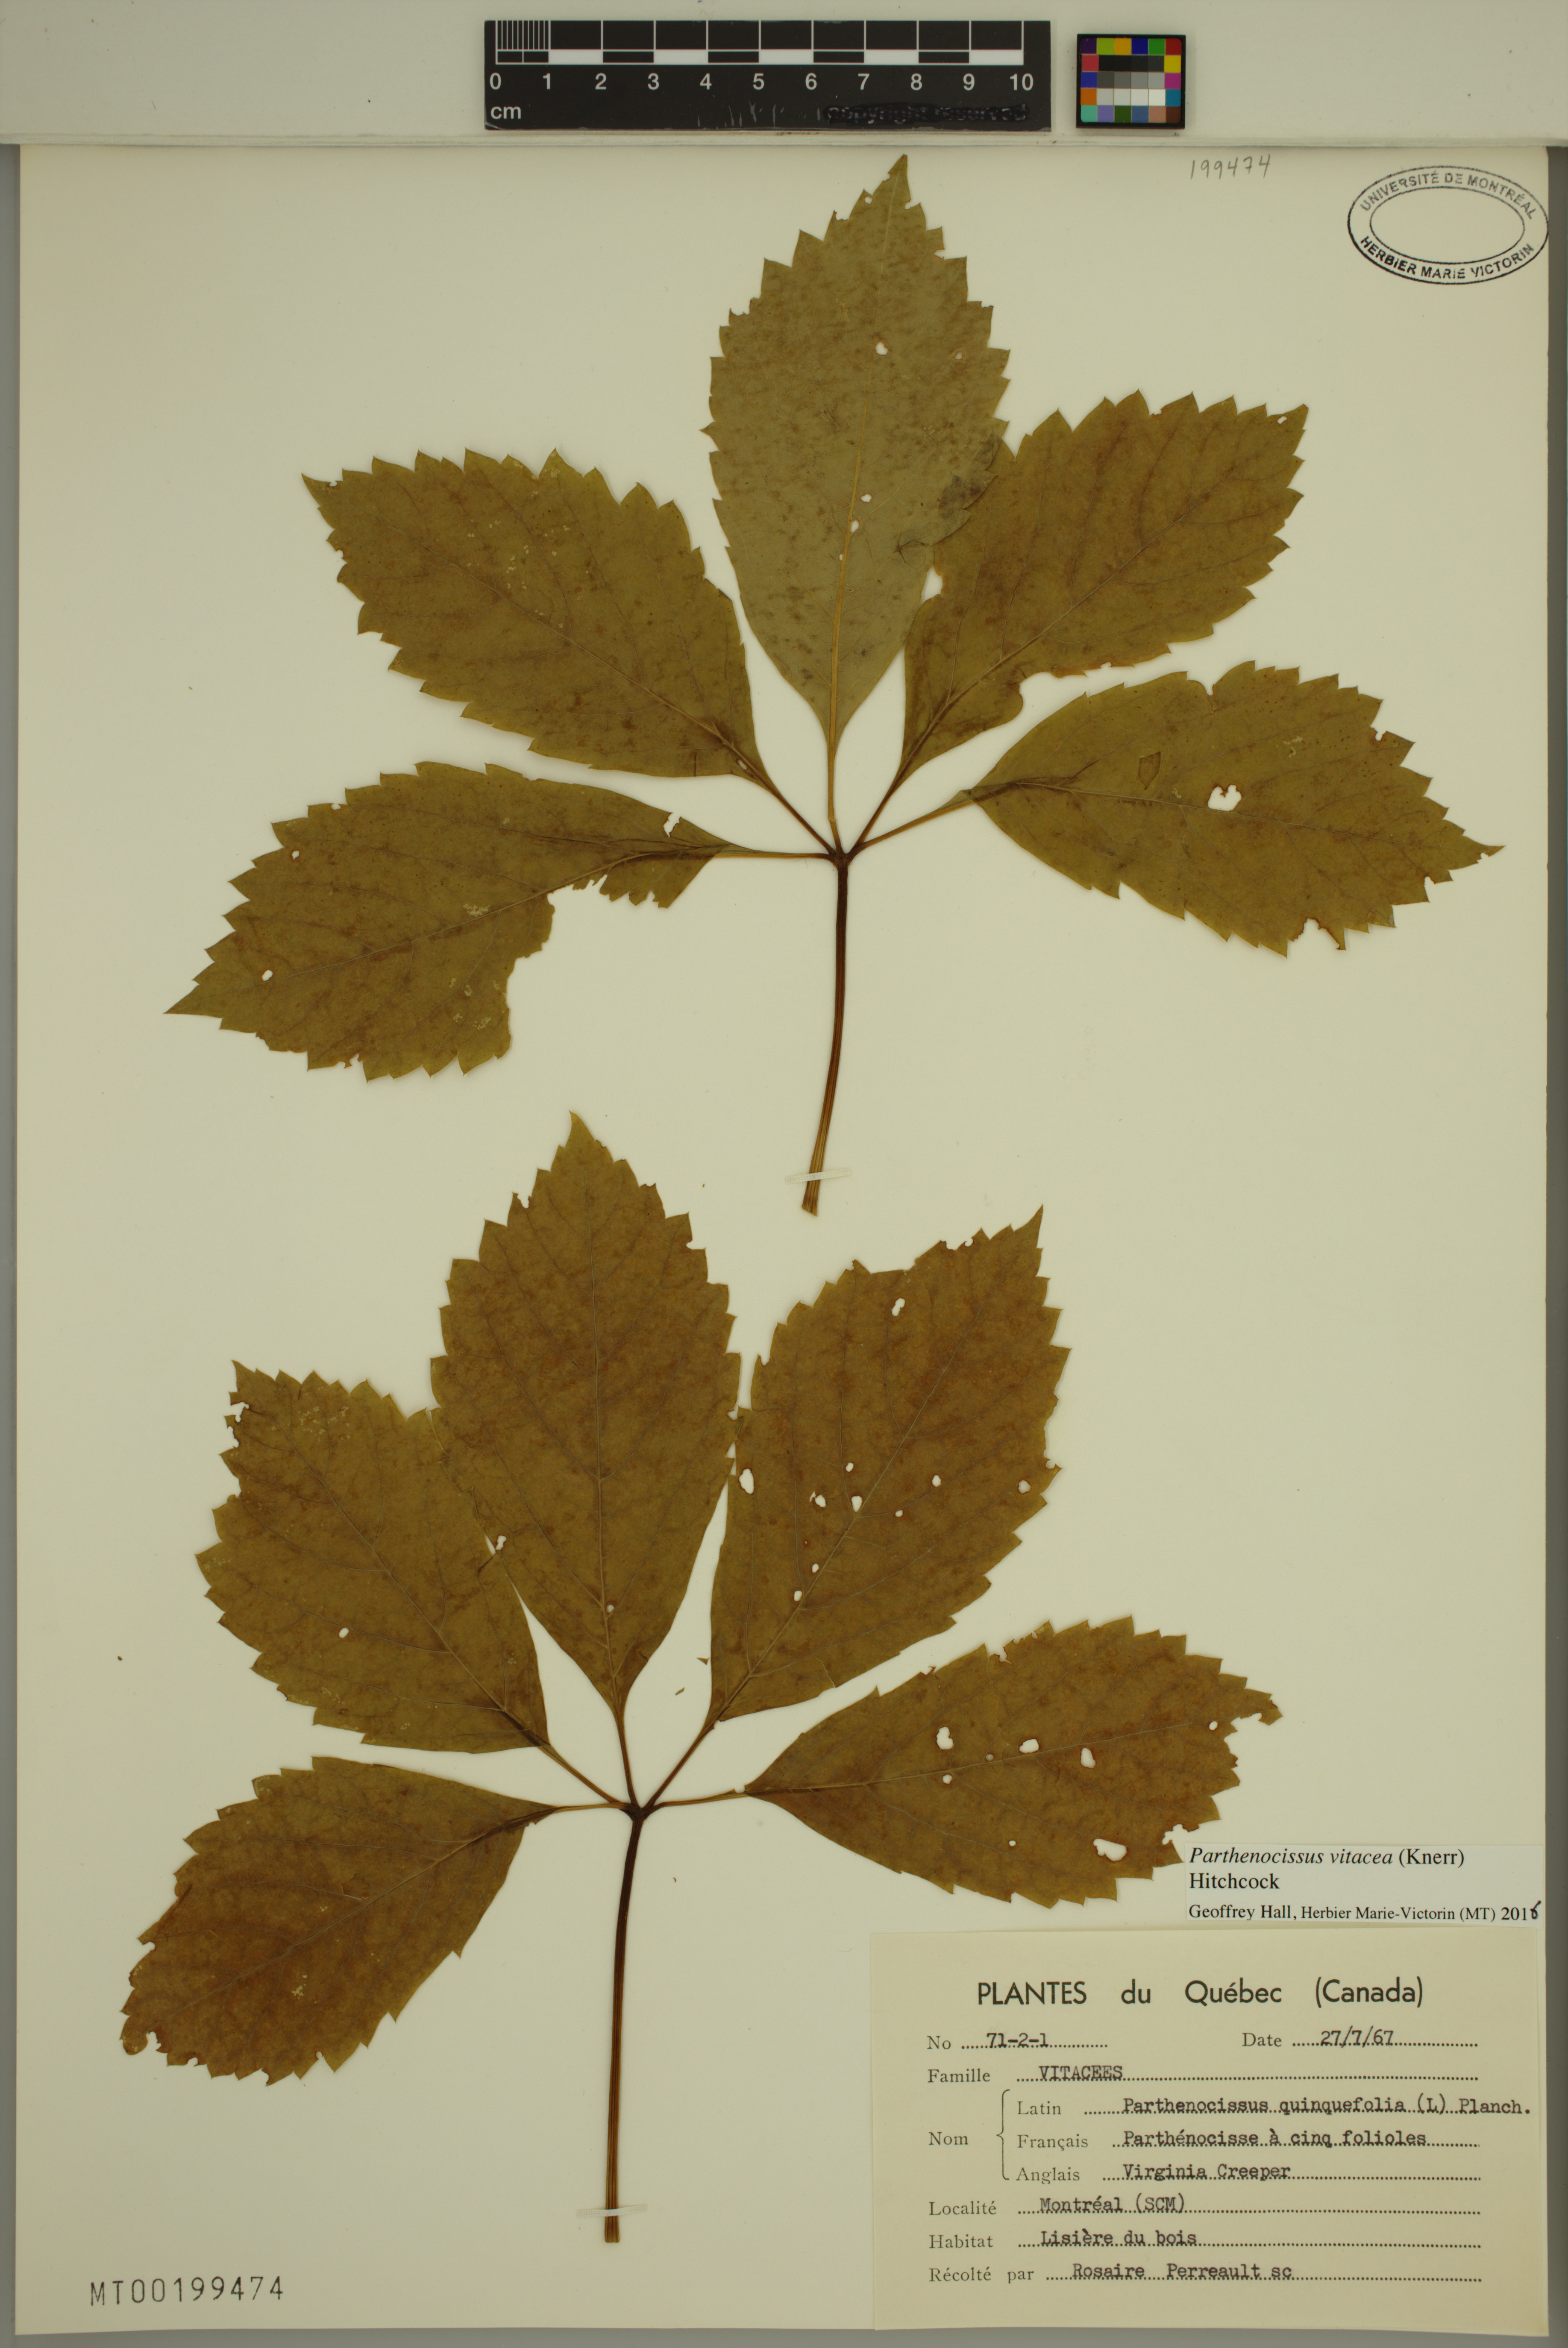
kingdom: Plantae
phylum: Tracheophyta
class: Magnoliopsida
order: Vitales
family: Vitaceae
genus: Parthenocissus
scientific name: Parthenocissus inserta
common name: False virginia-creeper
